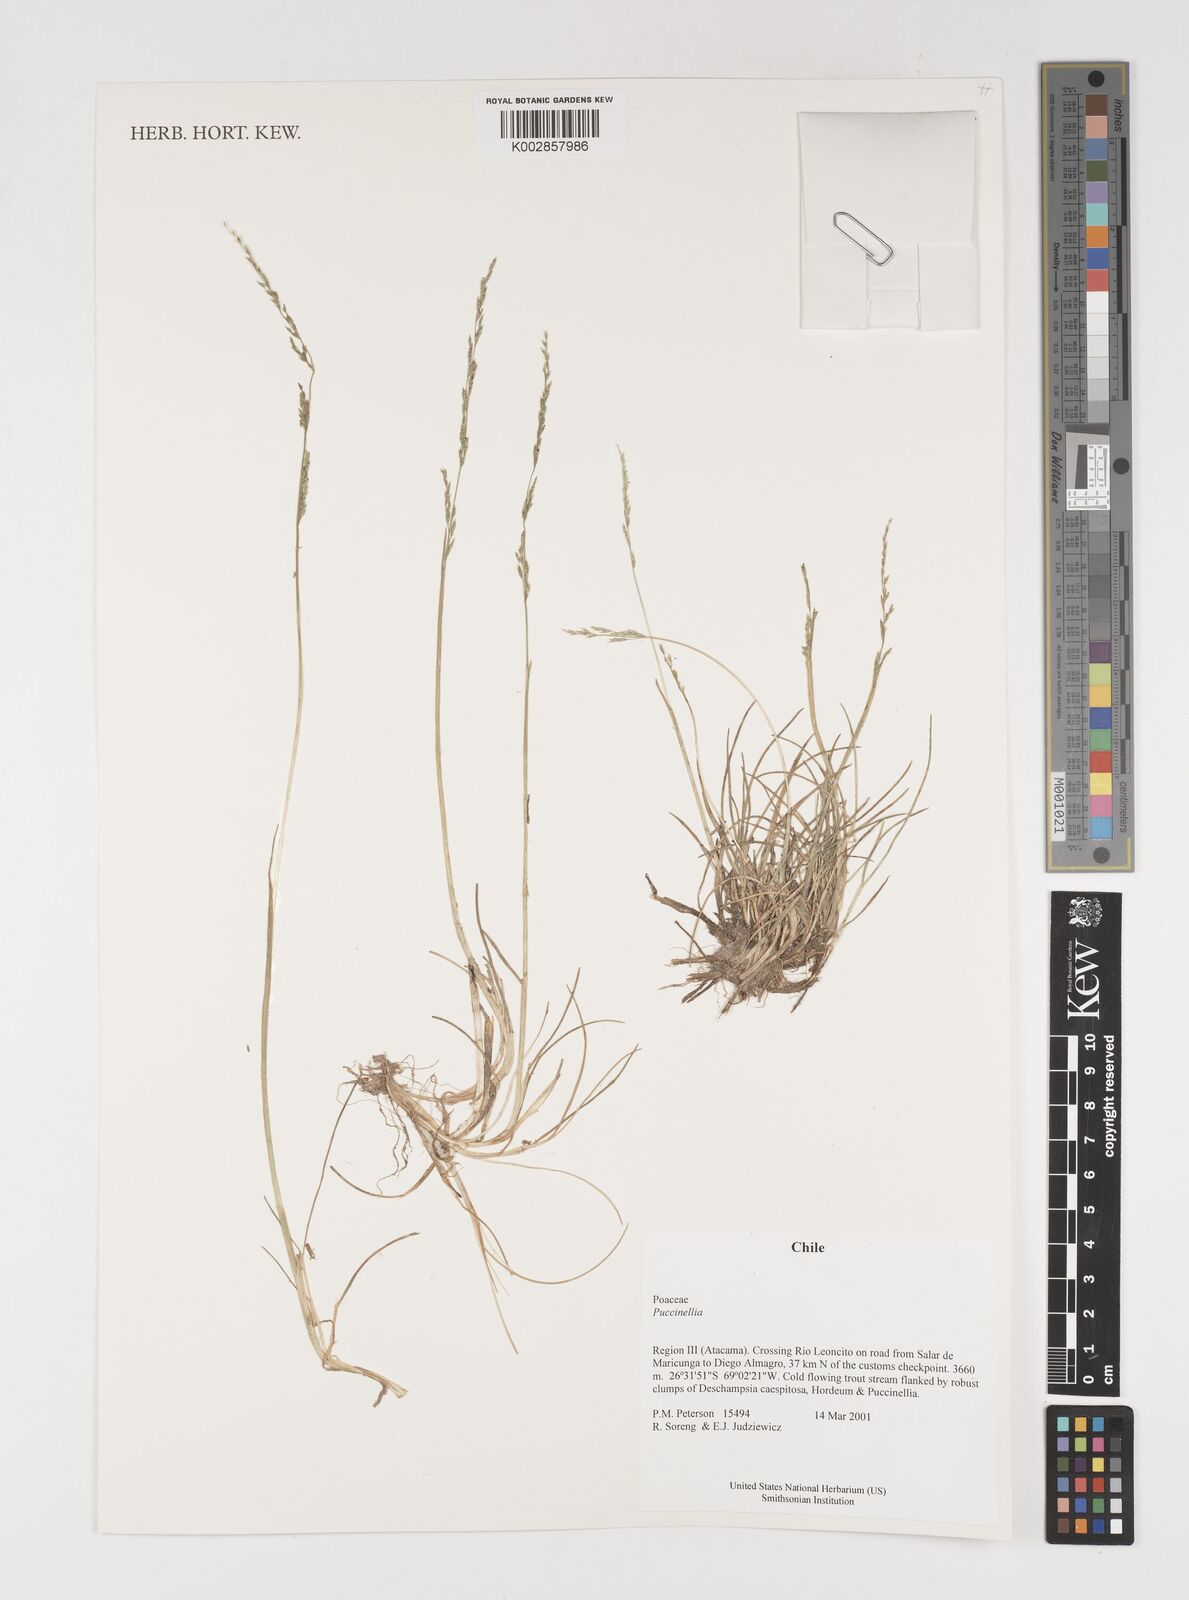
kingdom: Plantae
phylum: Tracheophyta
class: Liliopsida
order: Poales
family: Poaceae
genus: Puccinellia
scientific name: Puccinellia
